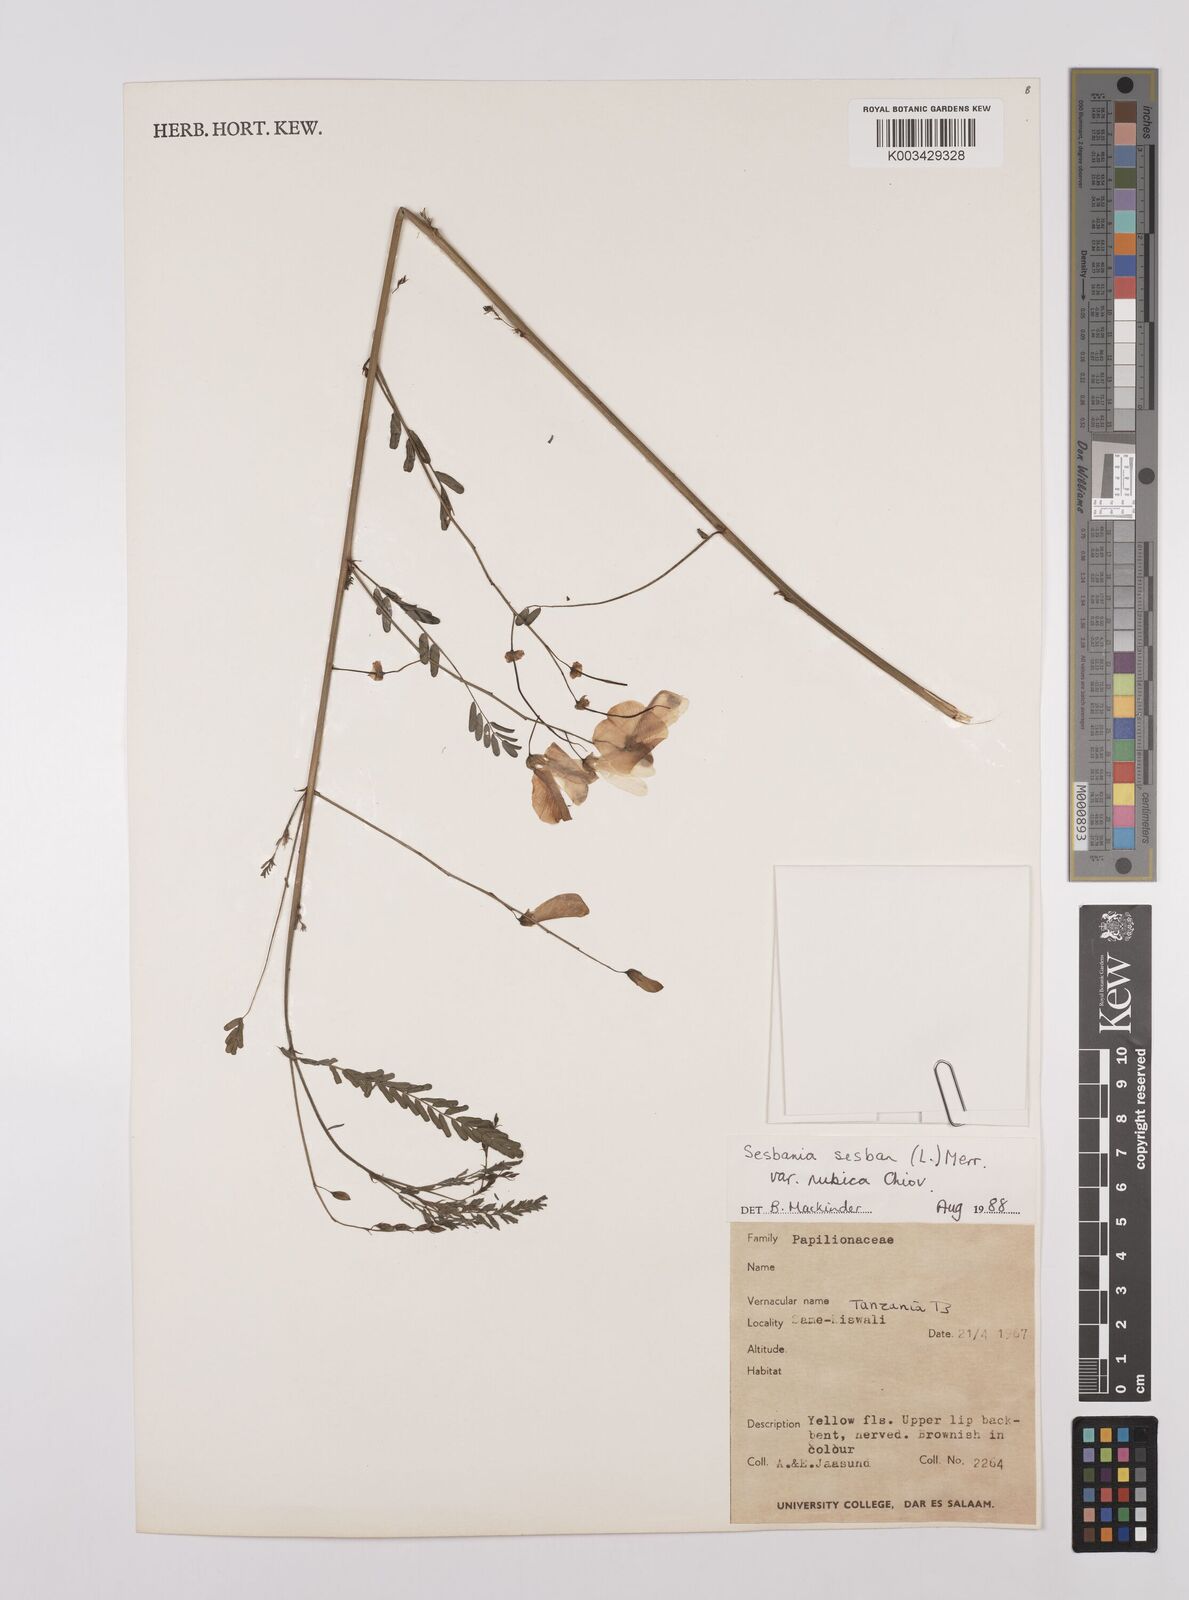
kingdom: Plantae
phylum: Tracheophyta
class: Magnoliopsida
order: Fabales
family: Fabaceae
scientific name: Fabaceae
